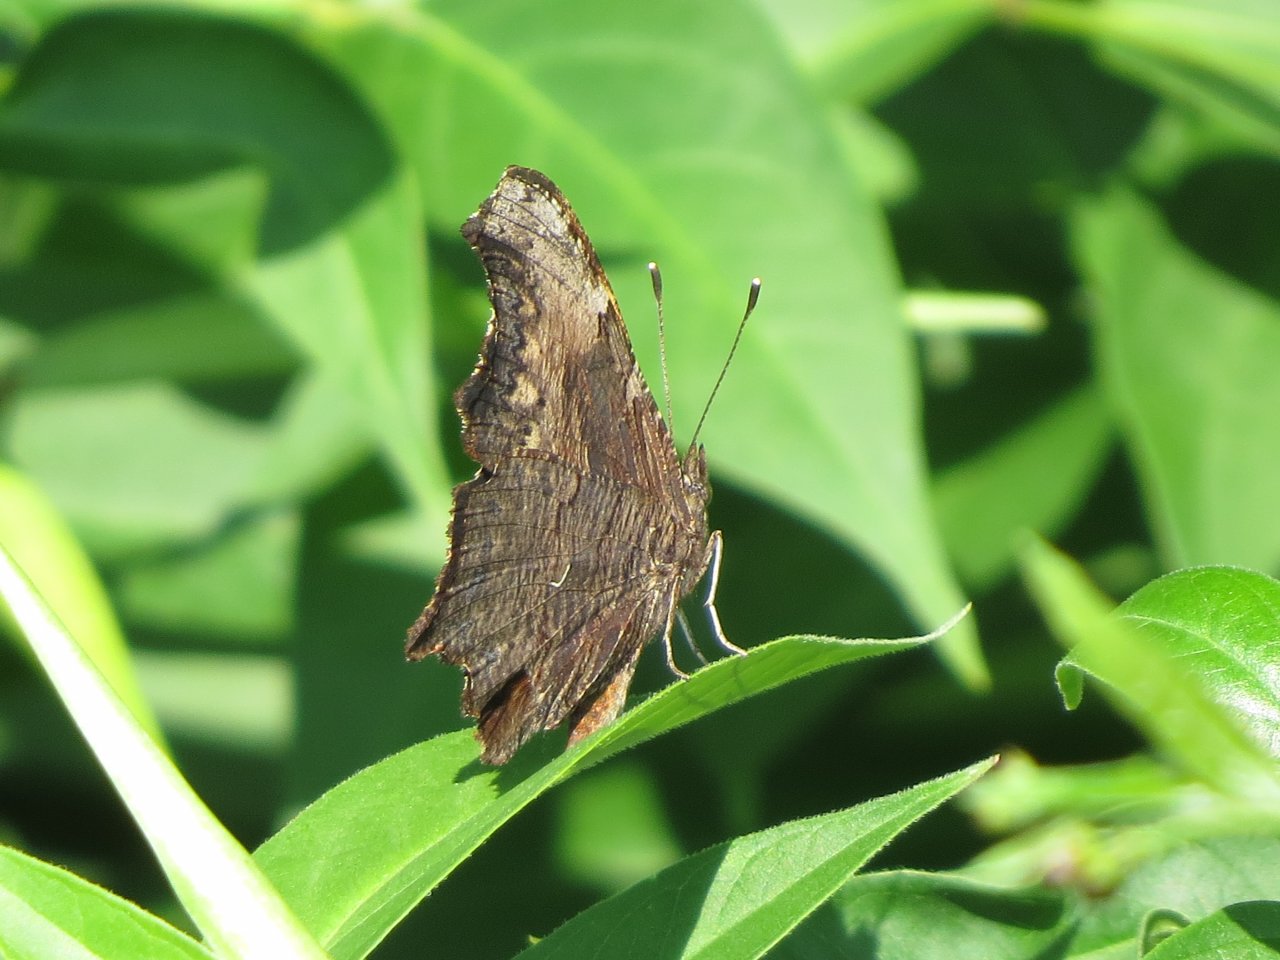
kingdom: Animalia
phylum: Arthropoda
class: Insecta
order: Lepidoptera
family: Nymphalidae
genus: Polygonia
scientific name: Polygonia progne
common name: Gray Comma
